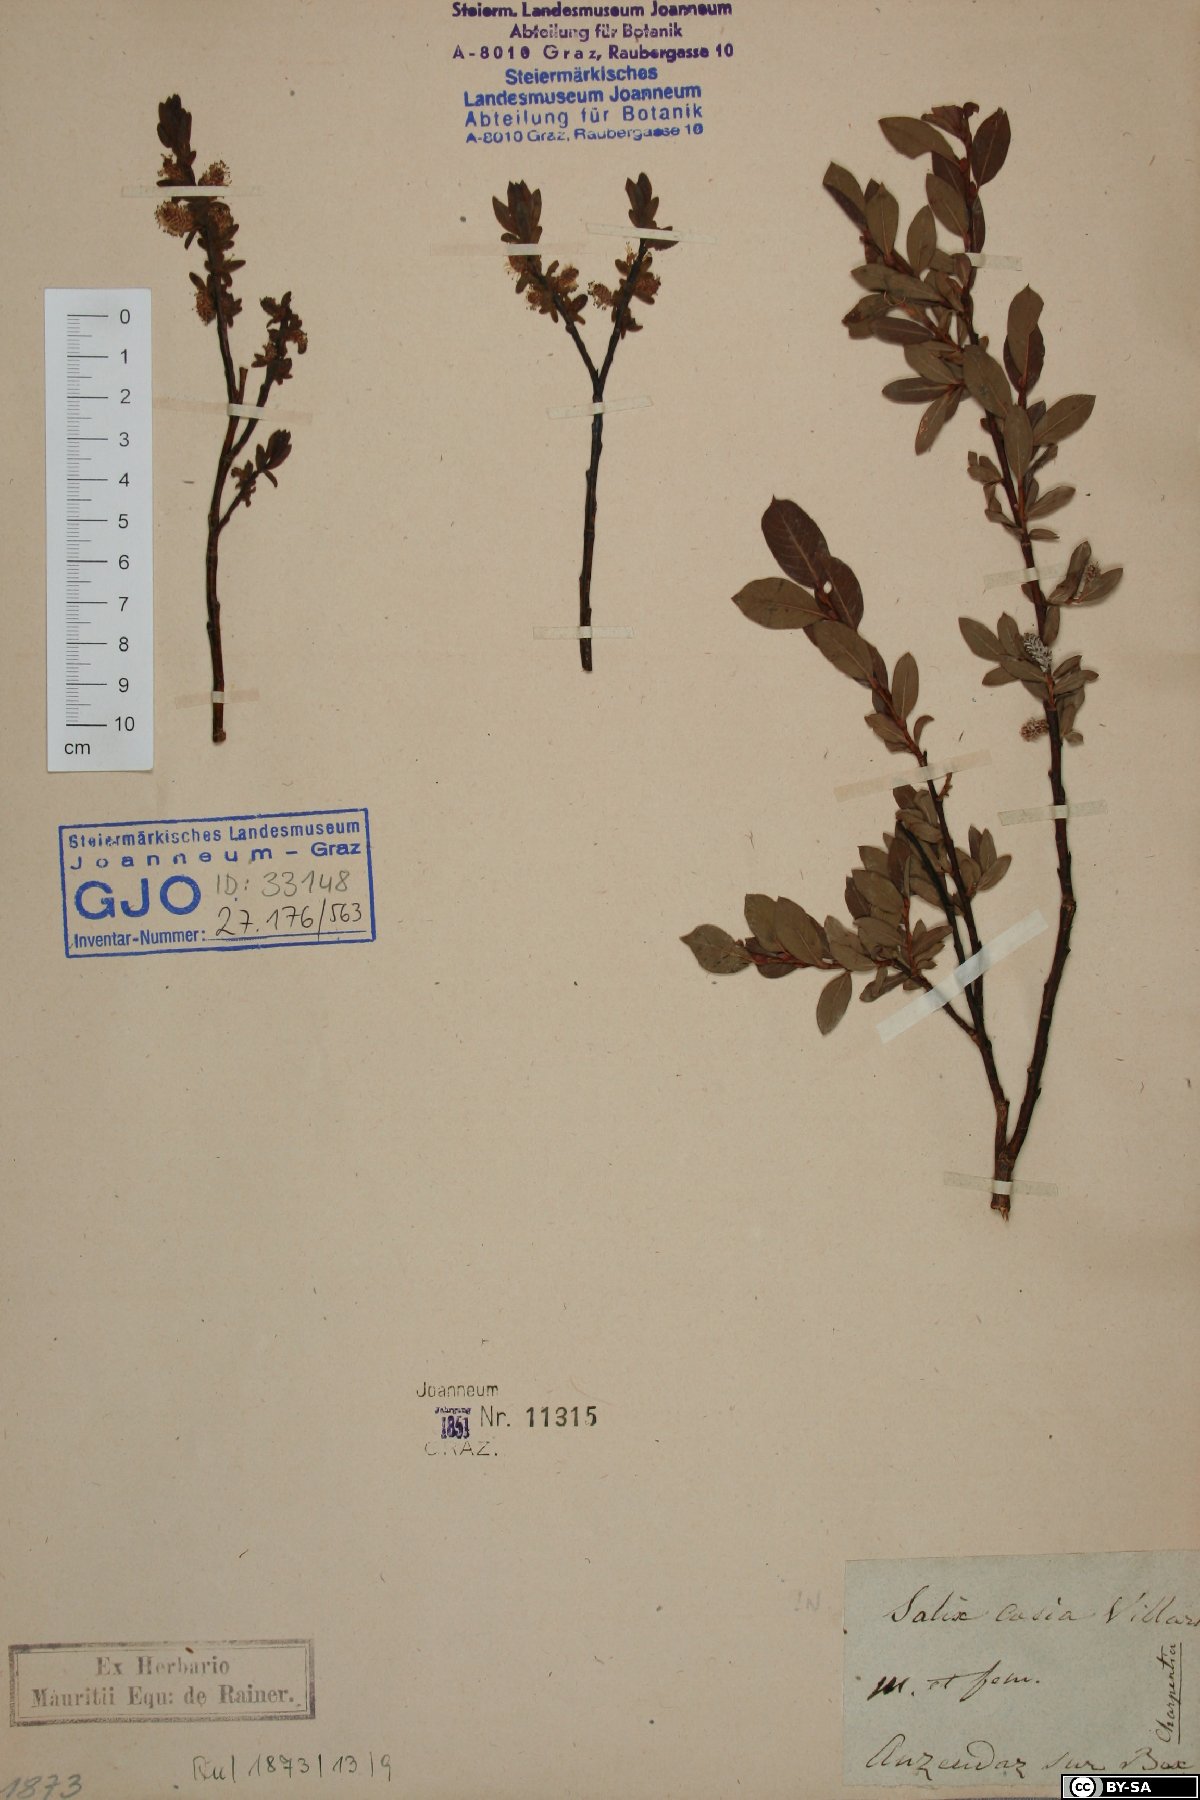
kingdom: Plantae
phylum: Tracheophyta
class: Magnoliopsida
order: Malpighiales
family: Salicaceae
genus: Salix
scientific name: Salix caesia
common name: Blue willow
